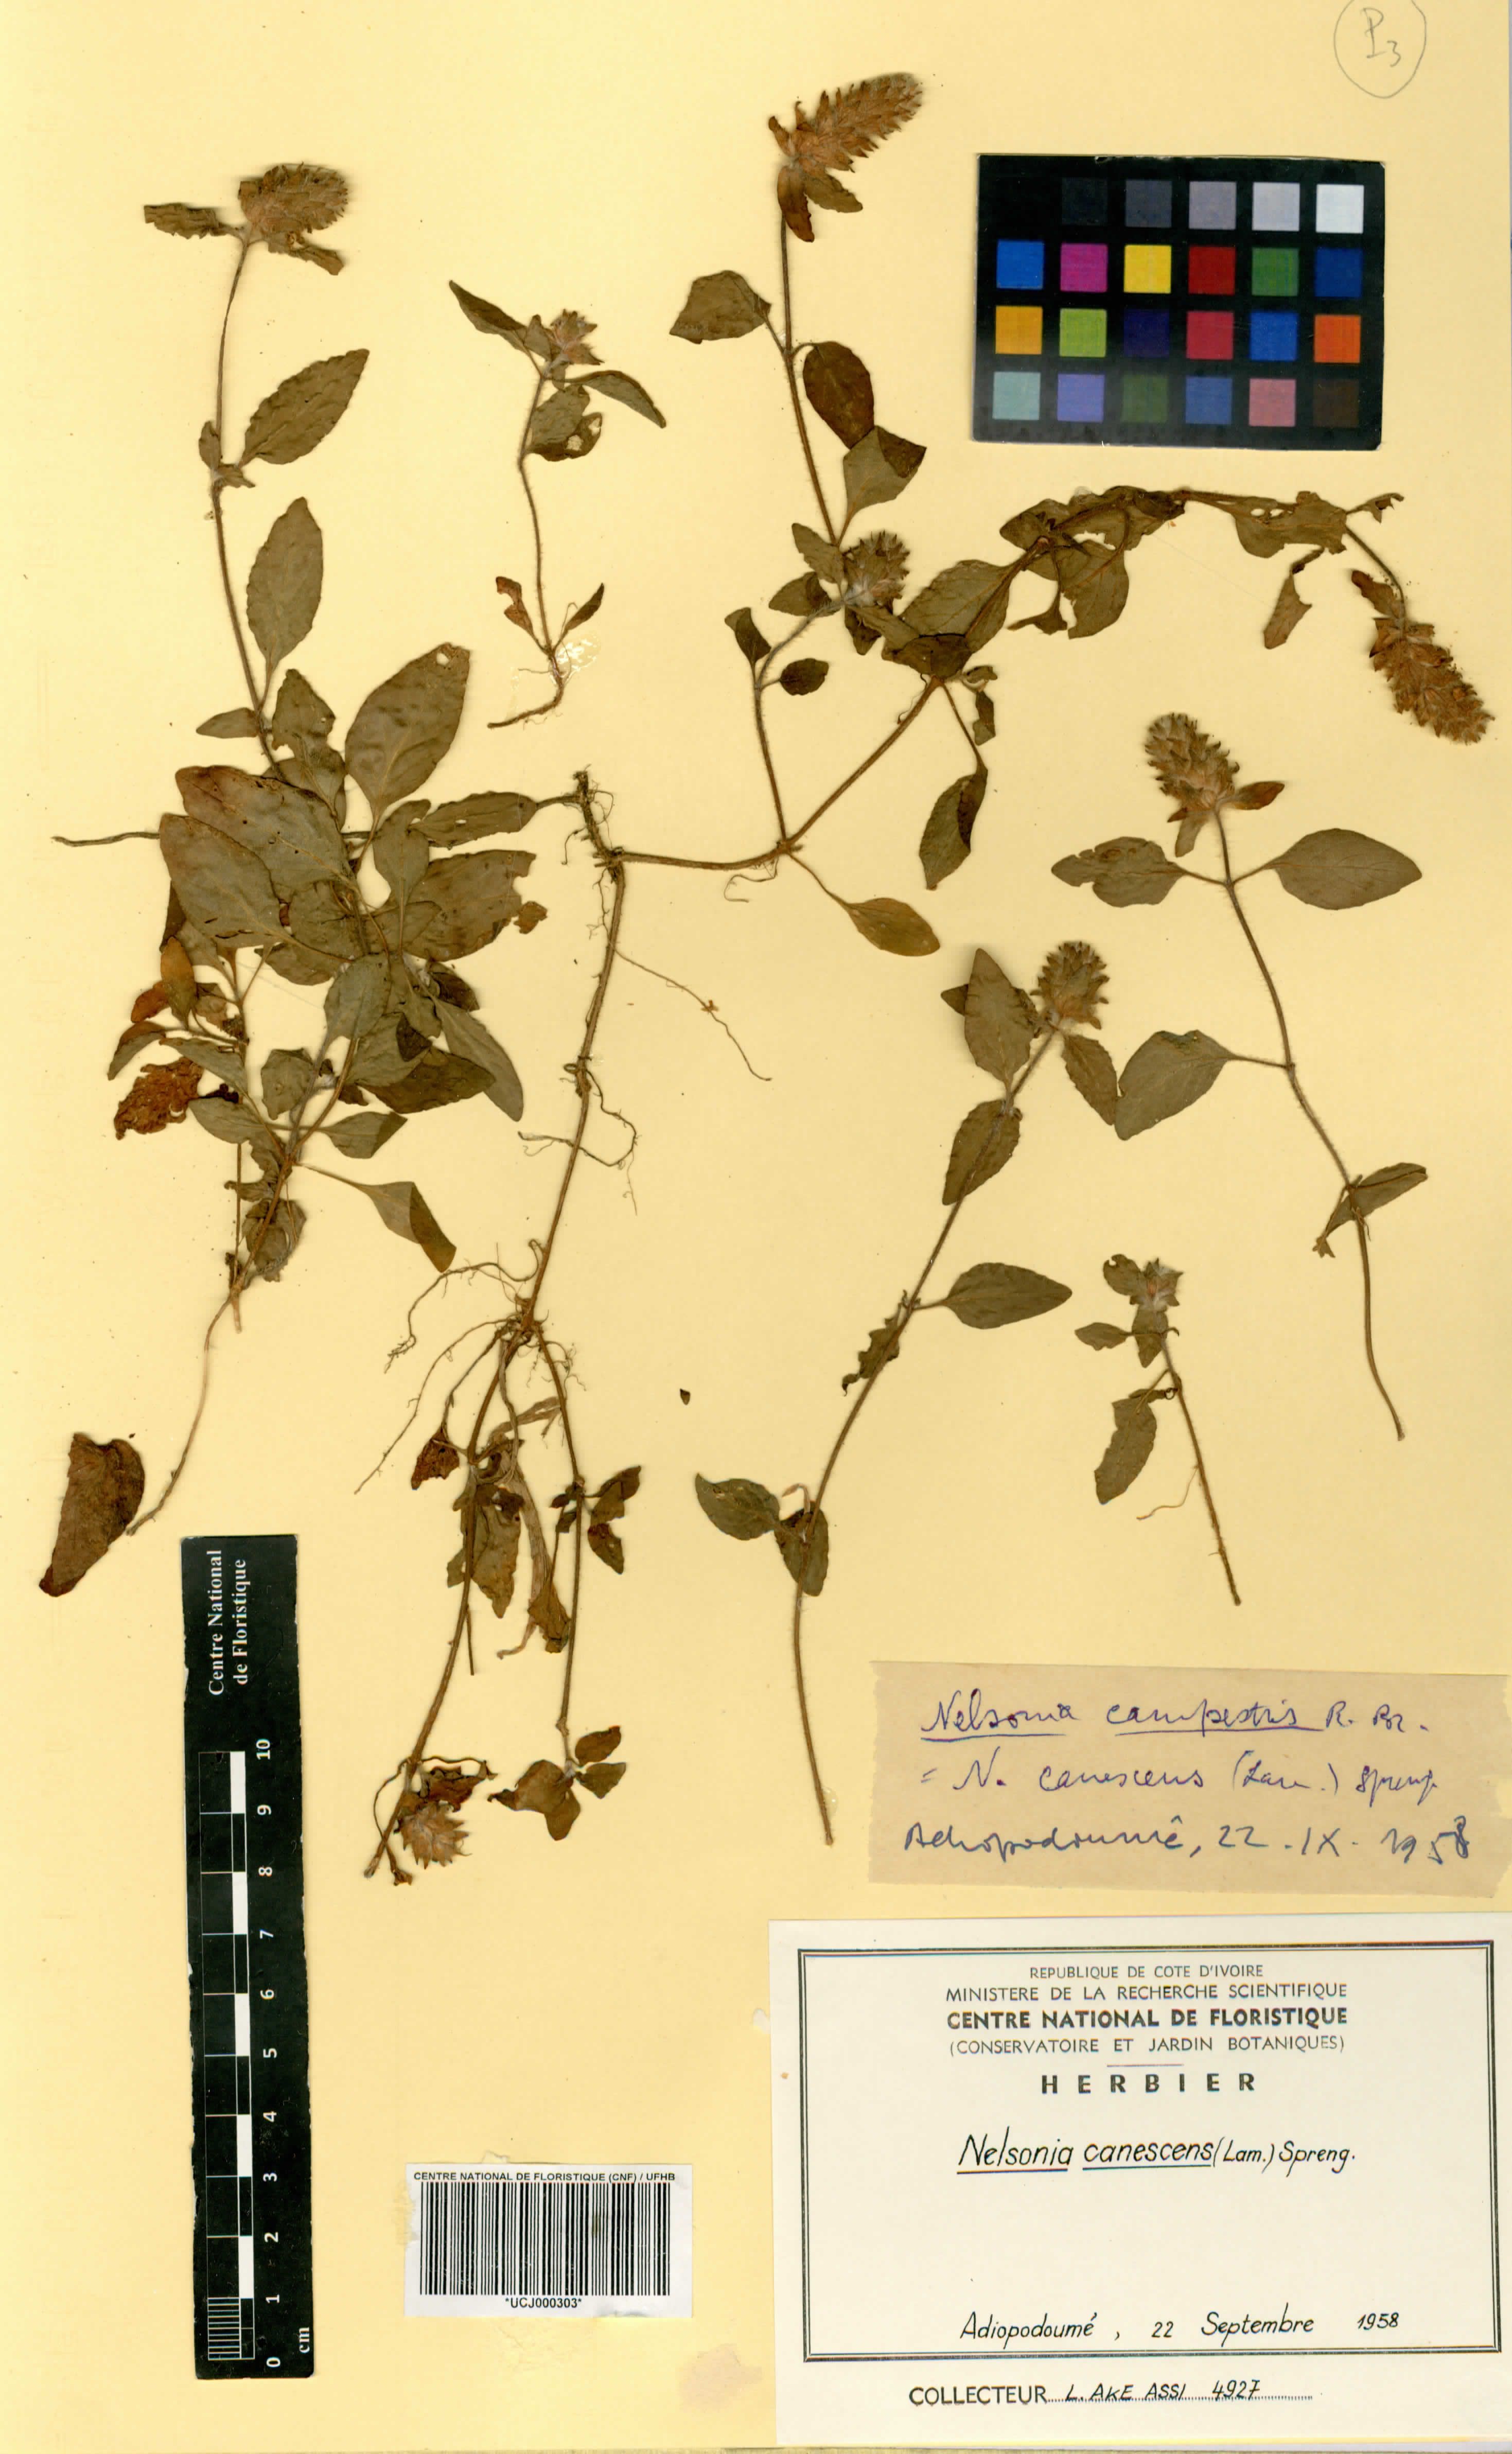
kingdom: Plantae
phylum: Tracheophyta
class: Magnoliopsida
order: Lamiales
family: Acanthaceae
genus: Nelsonia
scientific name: Nelsonia canescens
